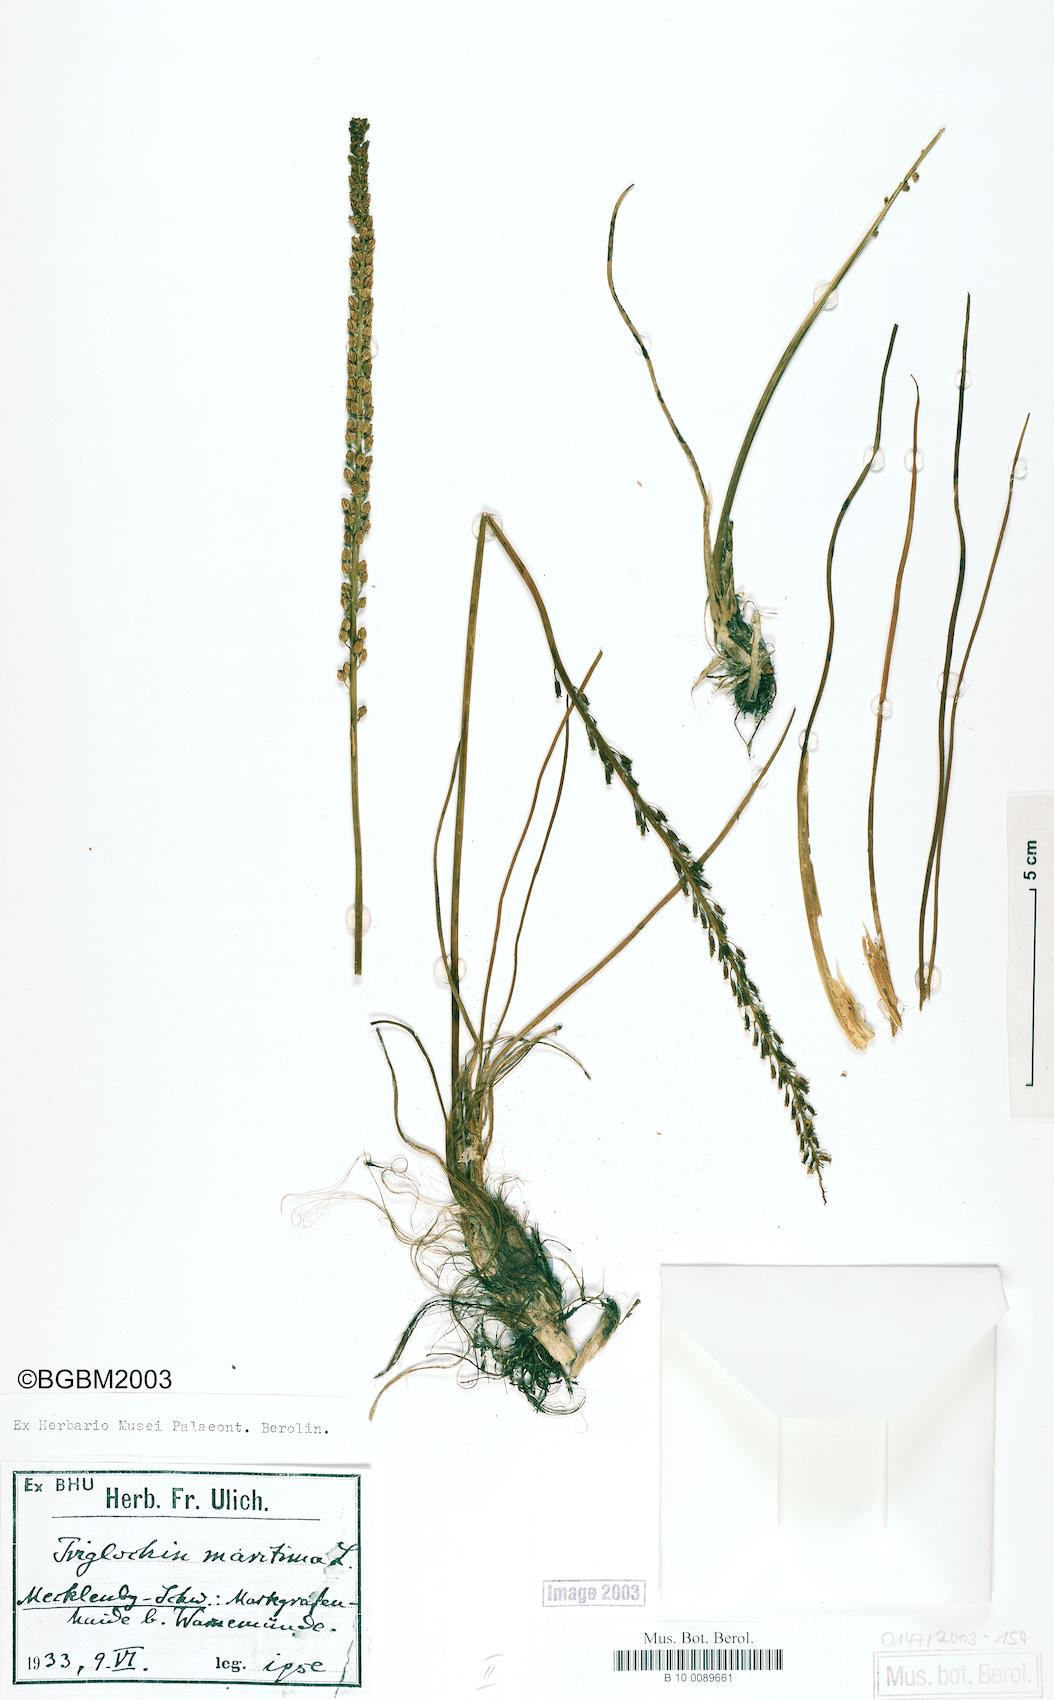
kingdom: Plantae
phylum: Tracheophyta
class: Liliopsida
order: Alismatales
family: Juncaginaceae
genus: Triglochin
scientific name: Triglochin maritima
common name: Sea arrowgrass
